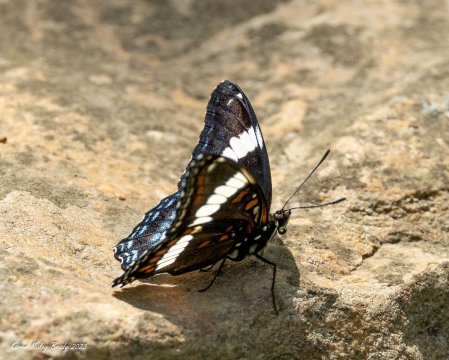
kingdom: Animalia
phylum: Arthropoda
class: Insecta
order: Lepidoptera
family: Nymphalidae
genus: Limenitis
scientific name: Limenitis arthemis
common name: Red-spotted Admiral
